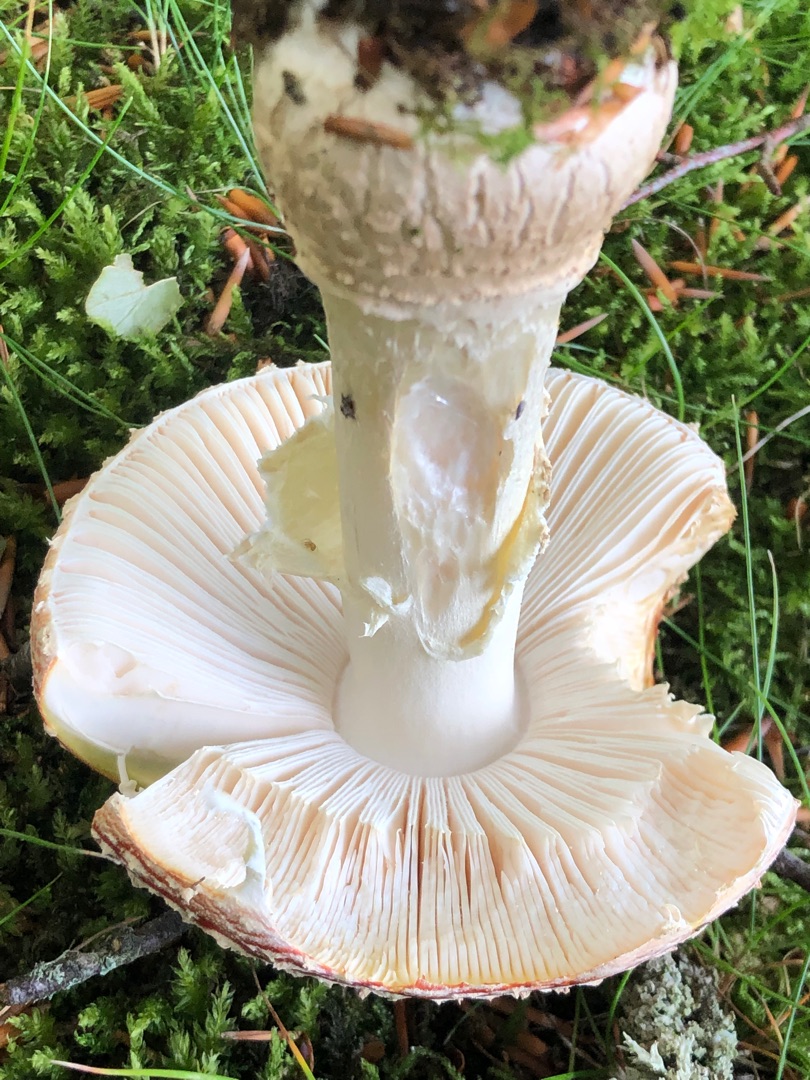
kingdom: Fungi
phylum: Basidiomycota
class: Agaricomycetes
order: Agaricales
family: Amanitaceae
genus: Amanita
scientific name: Amanita muscaria
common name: Rød fluesvamp
